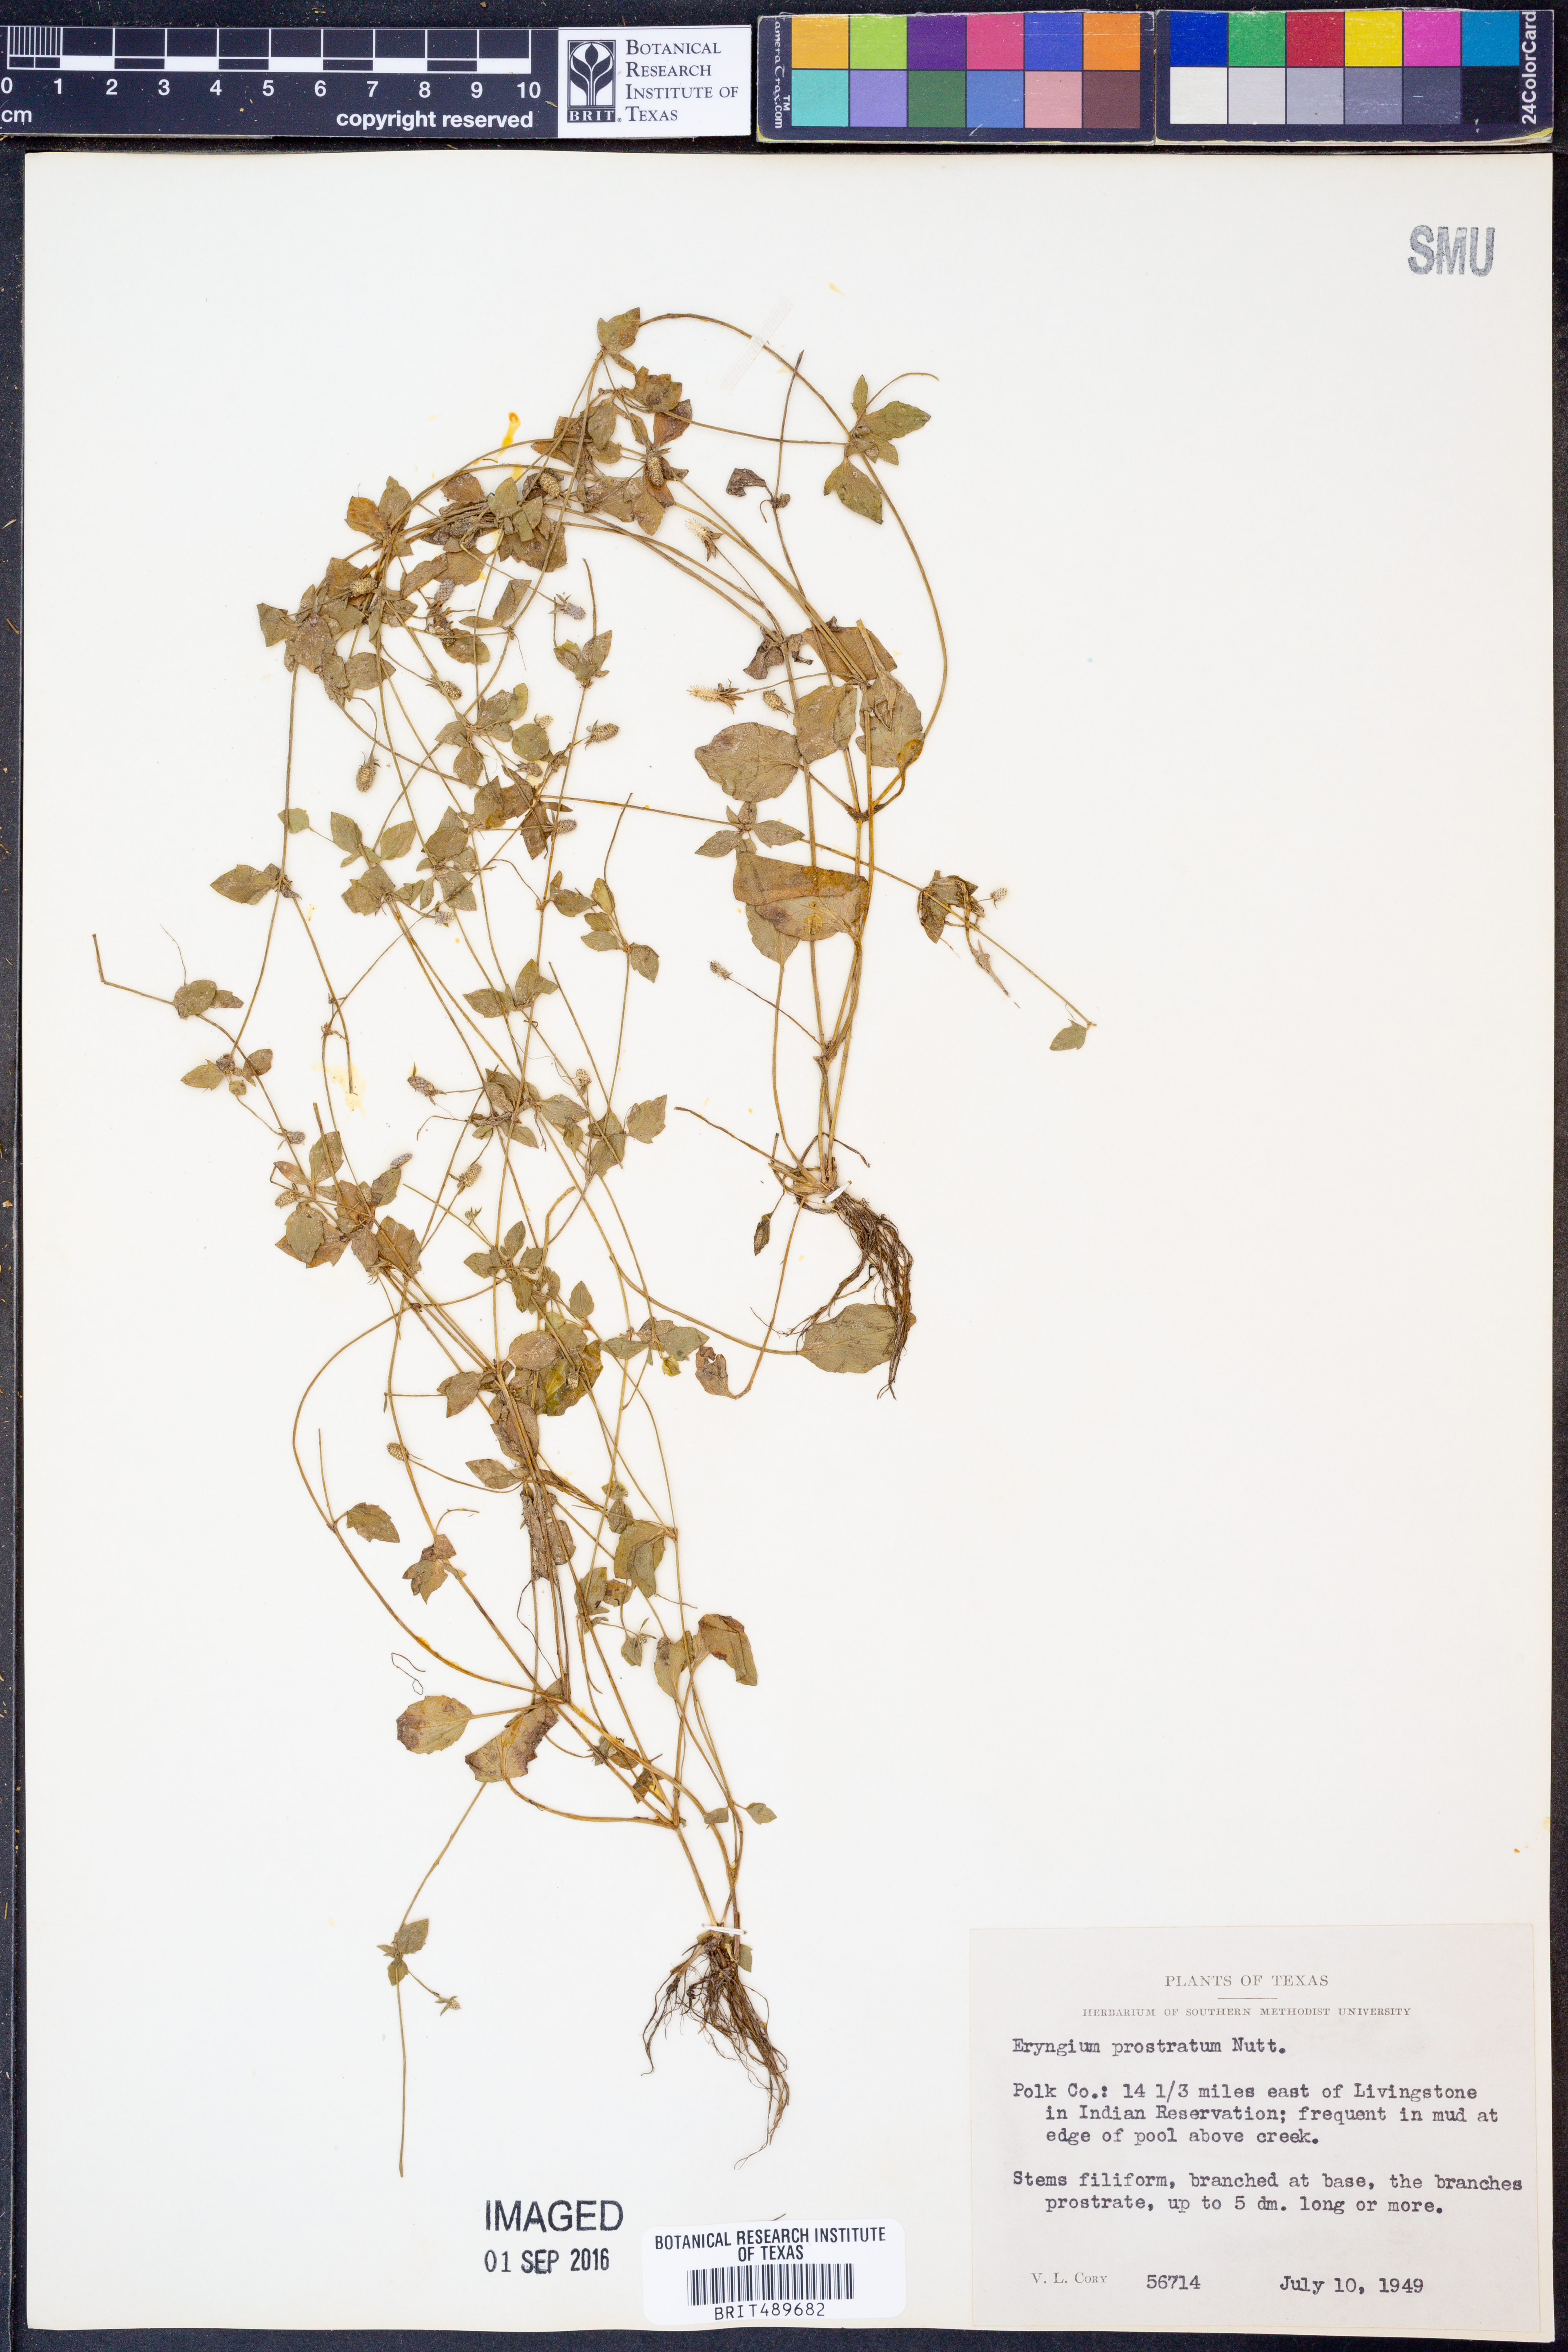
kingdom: Plantae
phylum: Tracheophyta
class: Magnoliopsida
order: Apiales
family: Apiaceae
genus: Eryngium
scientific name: Eryngium prostratum
